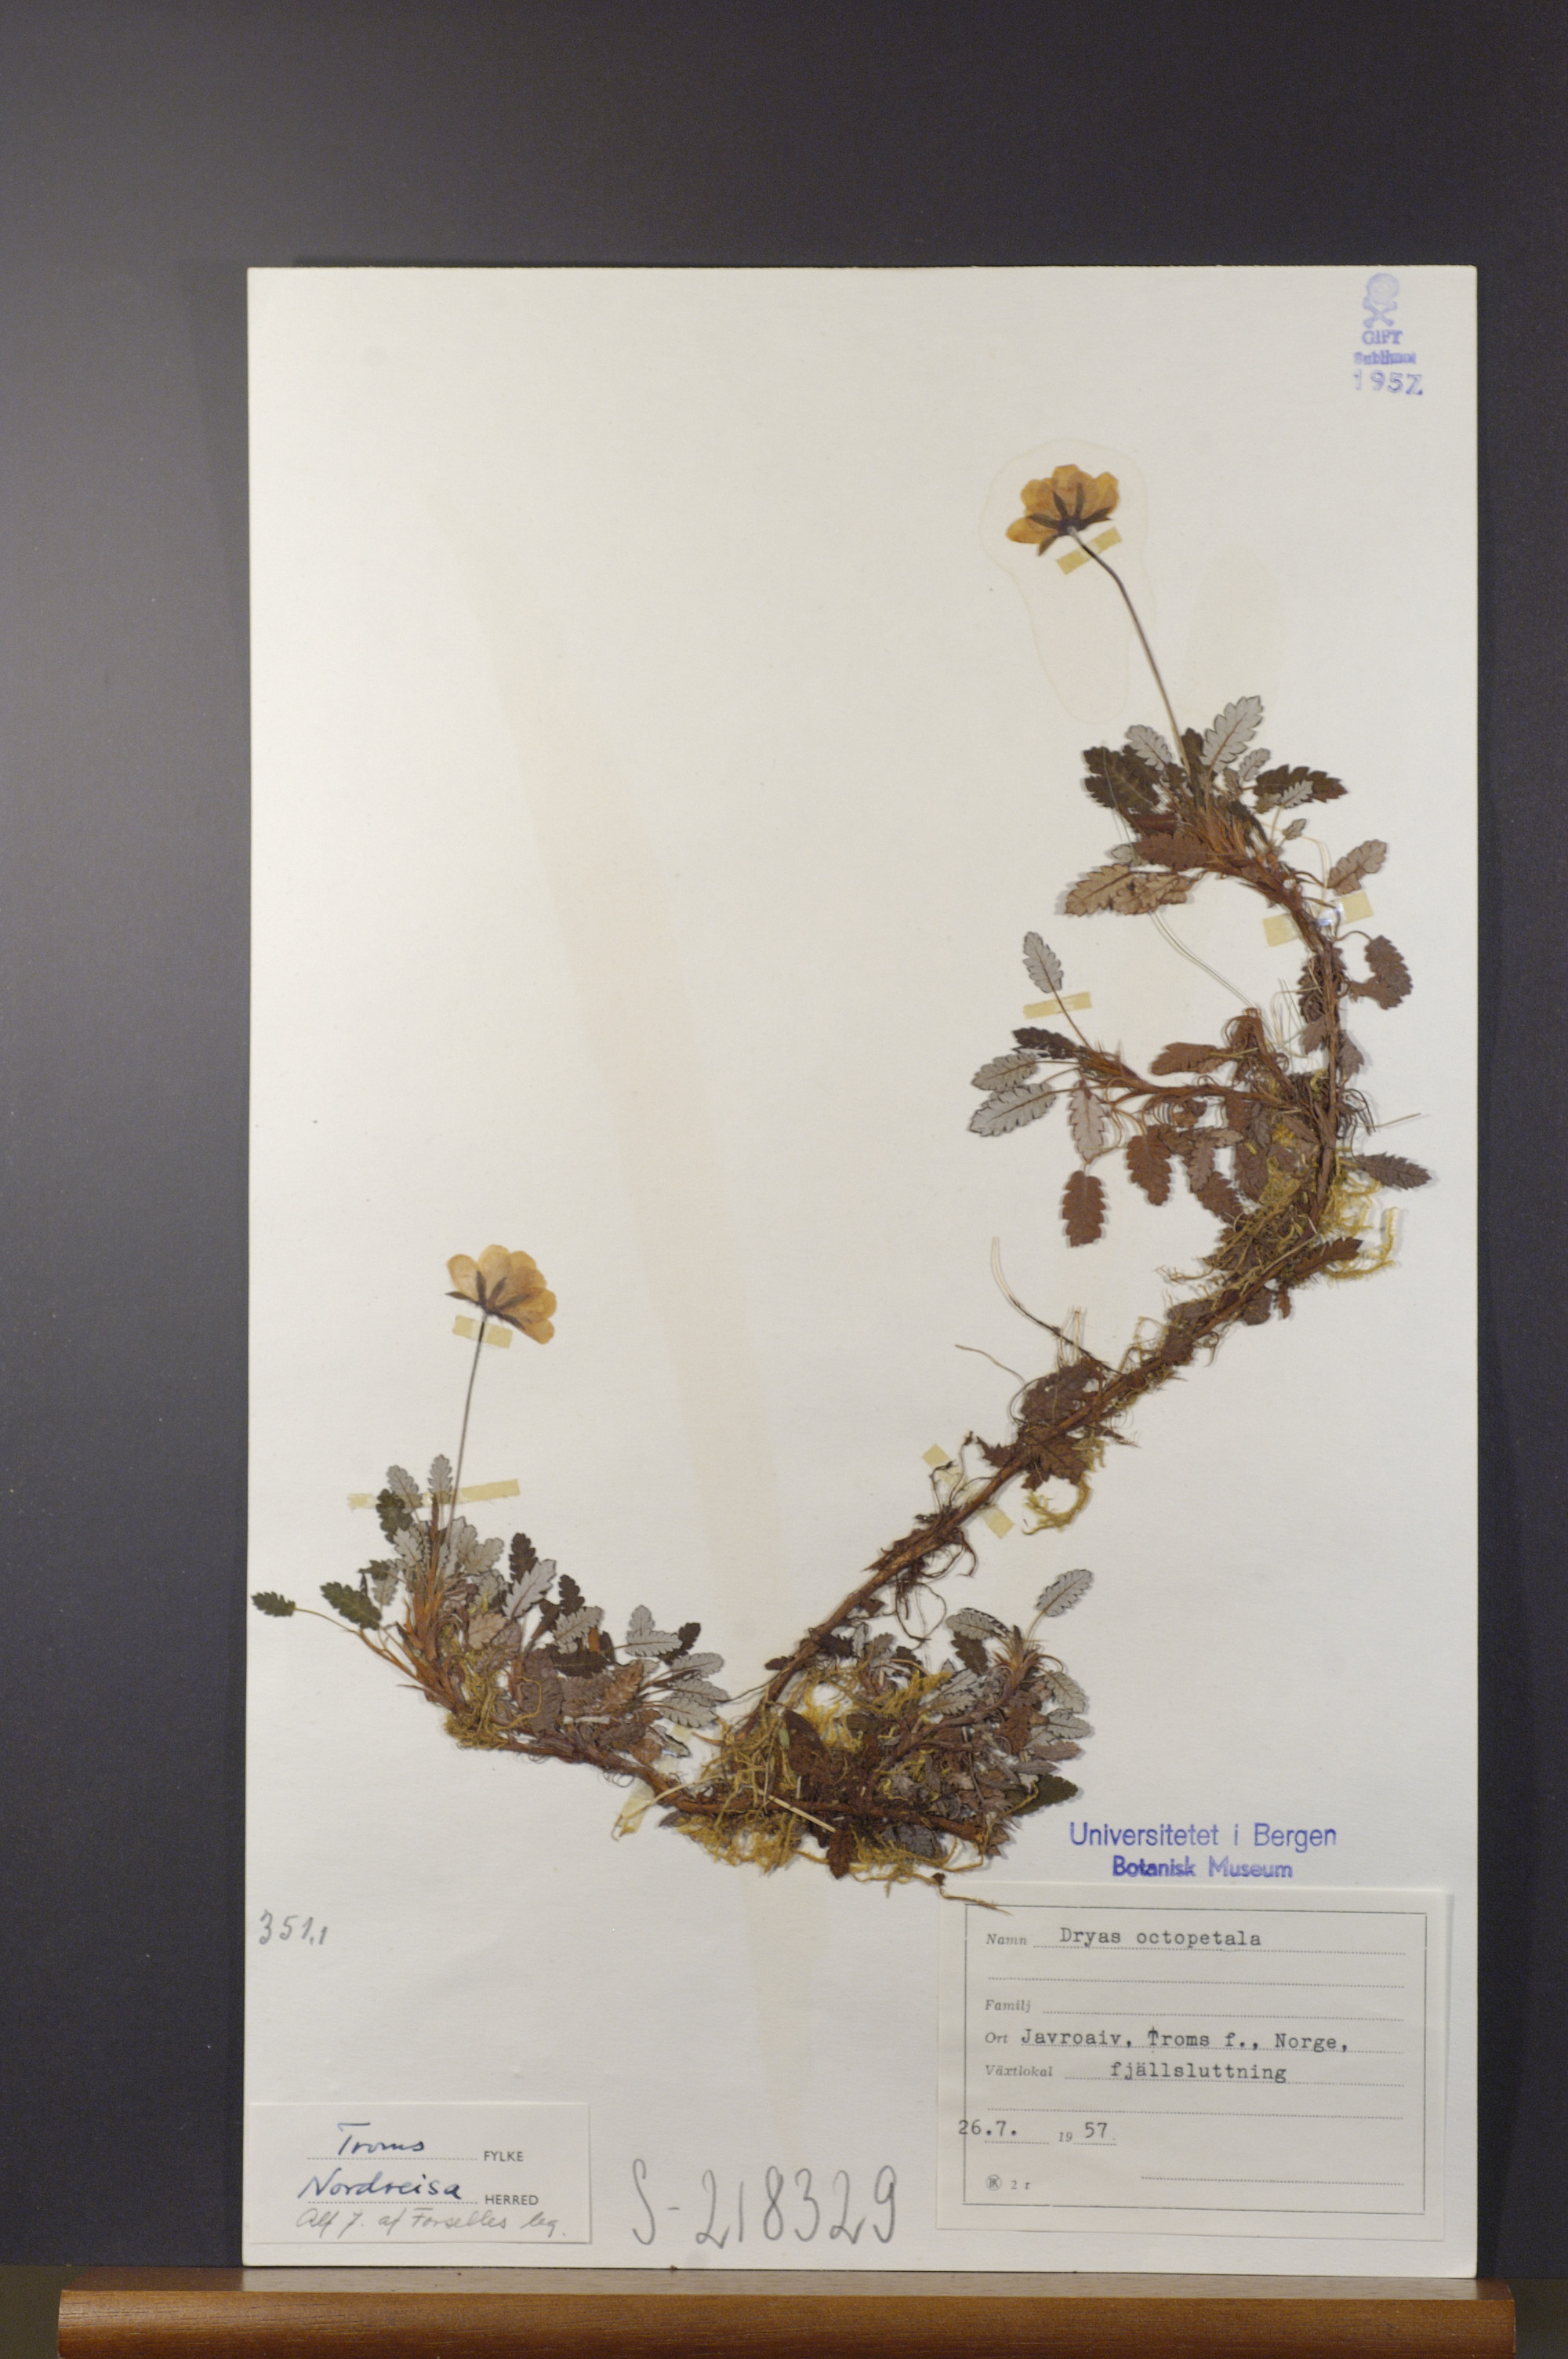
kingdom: Plantae
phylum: Tracheophyta
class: Magnoliopsida
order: Rosales
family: Rosaceae
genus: Dryas
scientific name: Dryas octopetala
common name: Eight-petal mountain-avens
